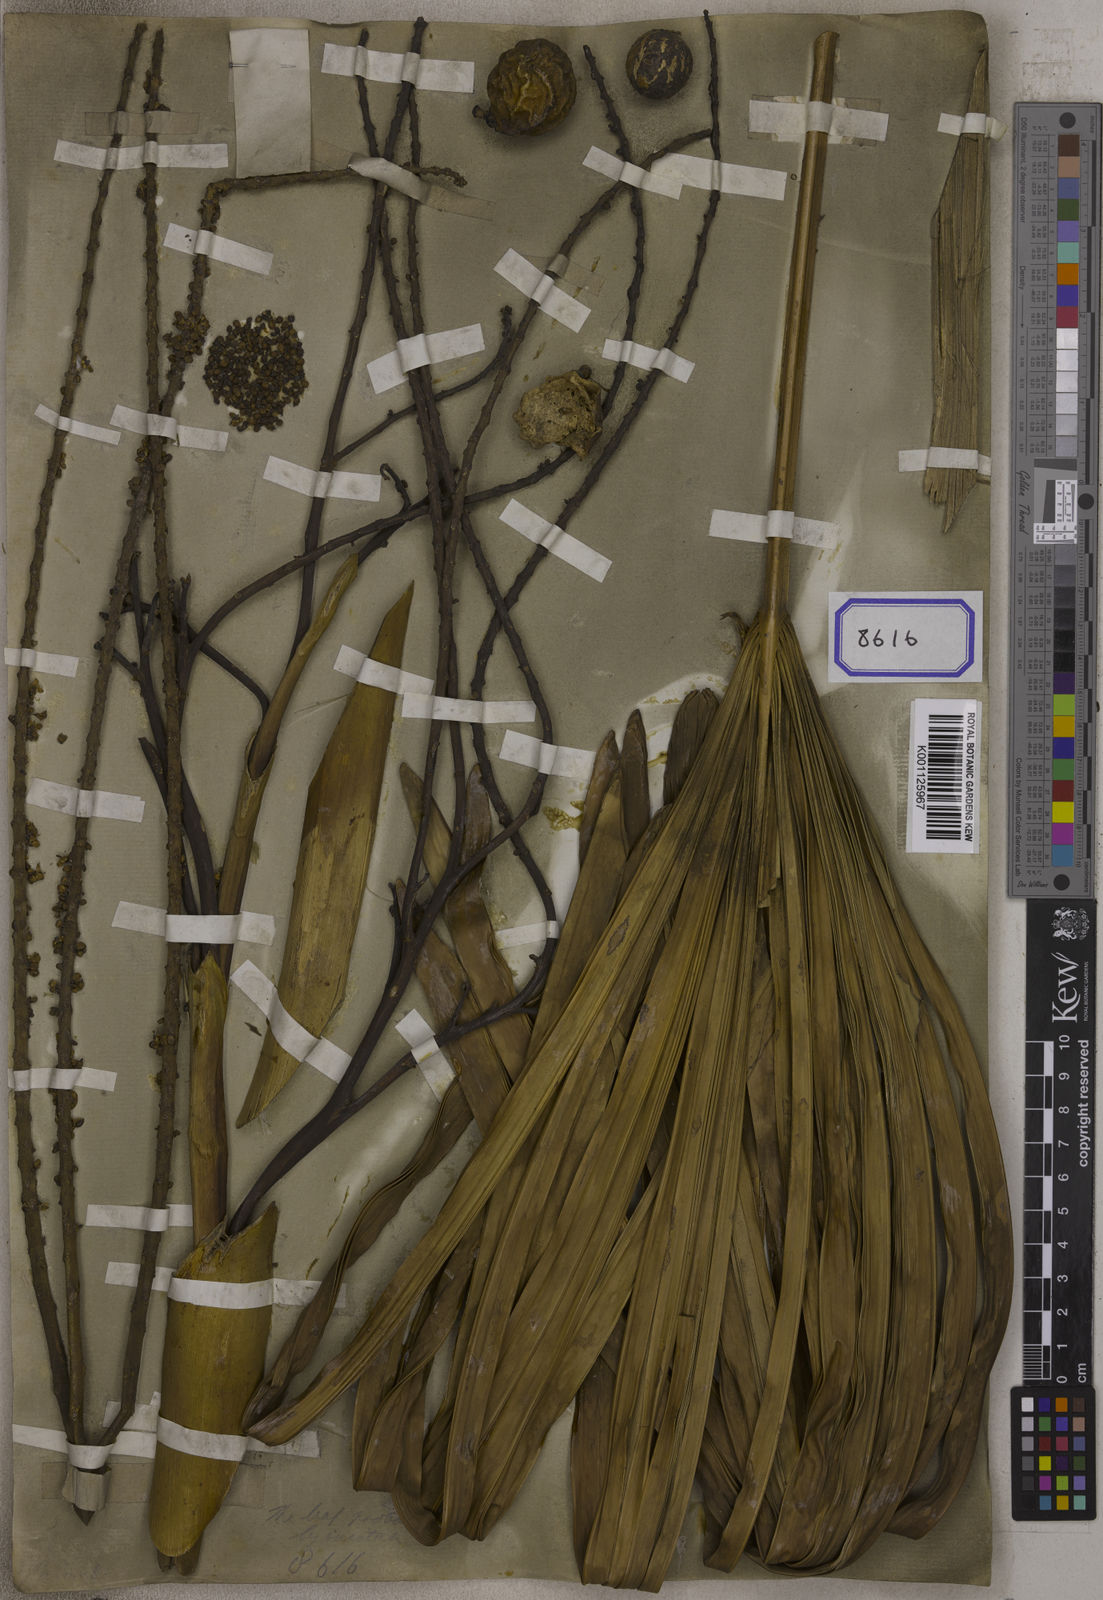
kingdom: Plantae
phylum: Tracheophyta
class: Liliopsida
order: Arecales
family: Arecaceae
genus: Corypha
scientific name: Corypha taliera
